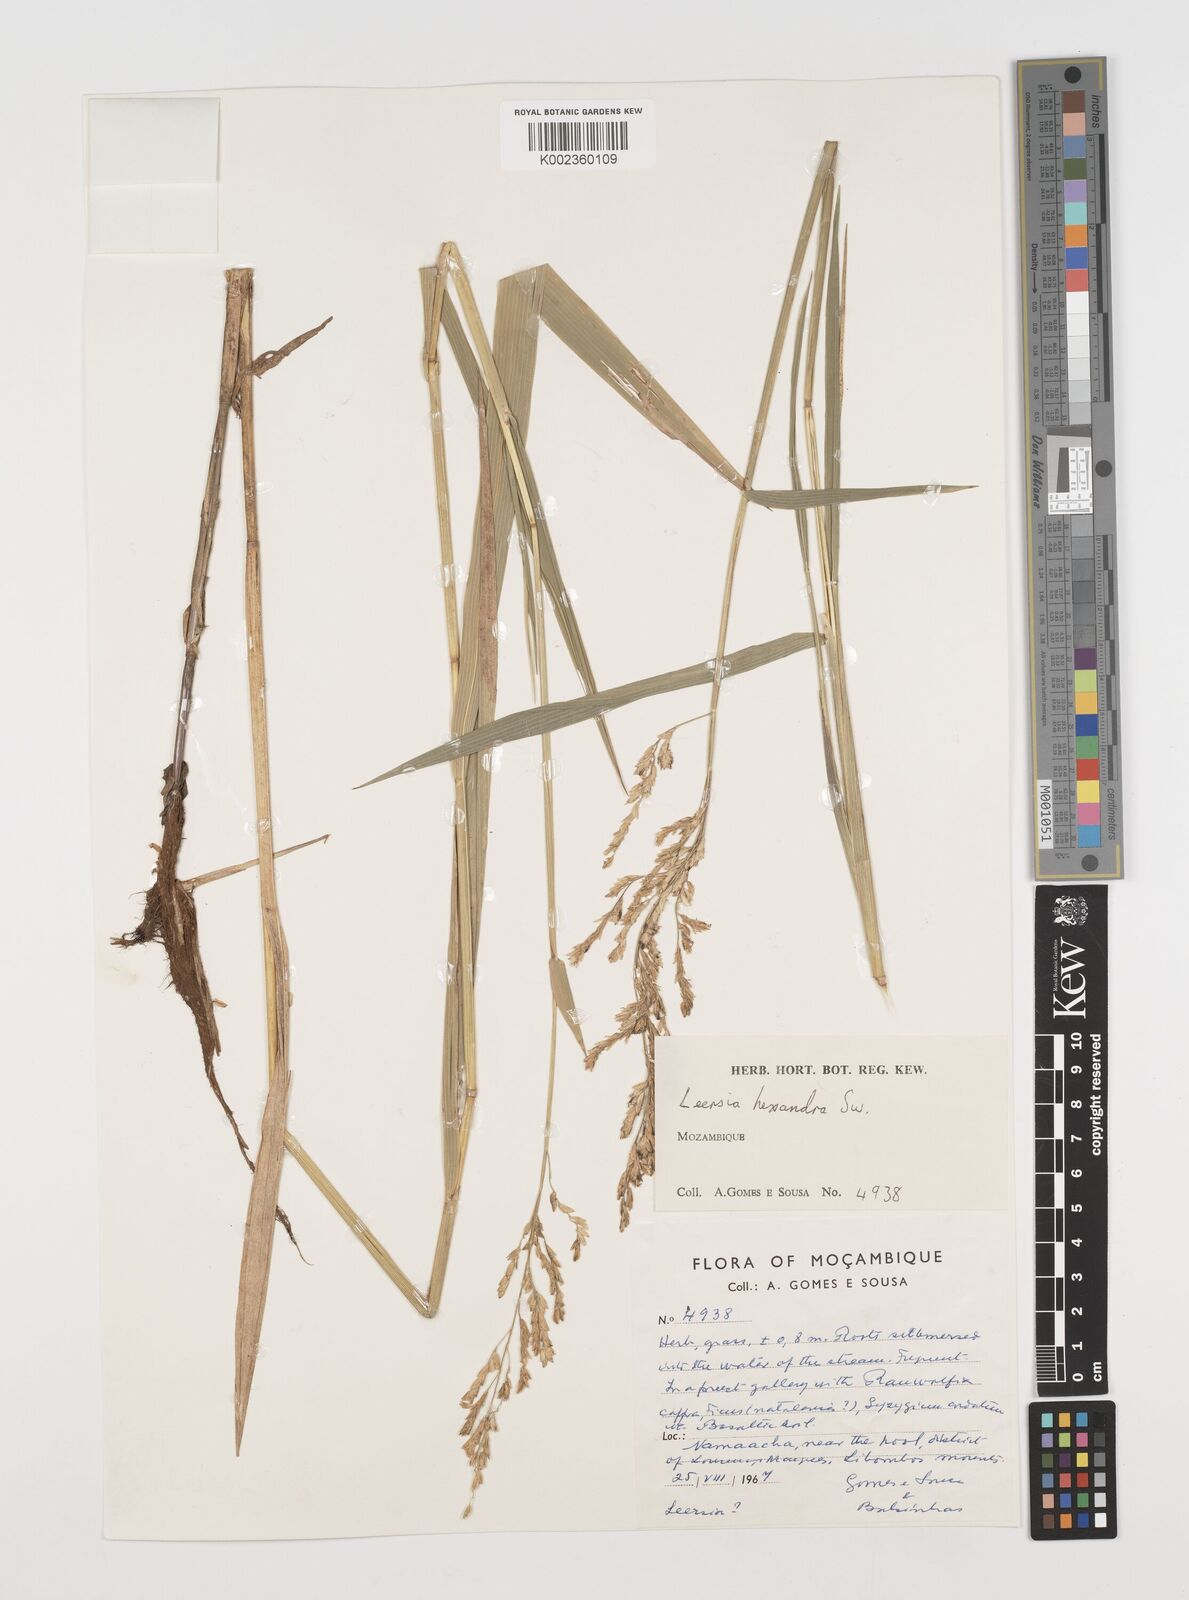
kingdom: Plantae
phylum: Tracheophyta
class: Liliopsida
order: Poales
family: Poaceae
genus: Leersia
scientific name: Leersia hexandra
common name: Southern cut grass
